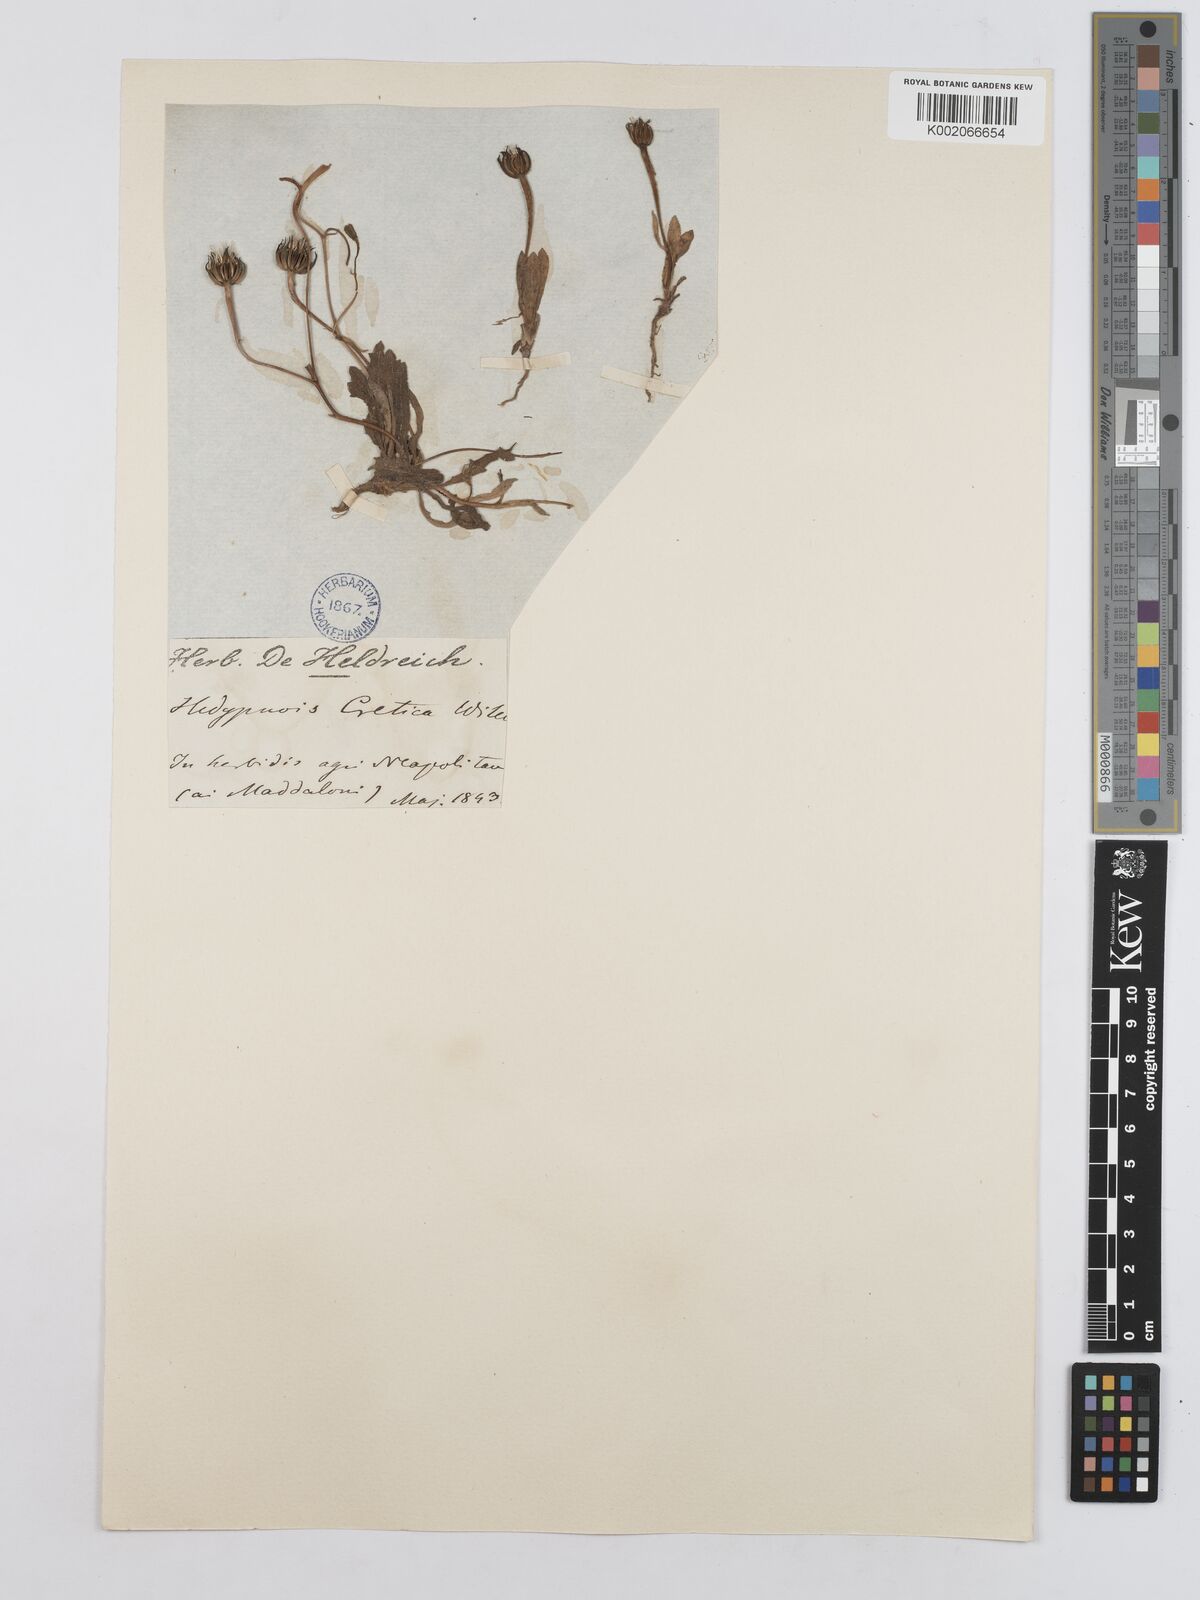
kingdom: Plantae
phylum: Tracheophyta
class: Magnoliopsida
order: Asterales
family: Asteraceae
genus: Hedypnois
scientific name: Hedypnois rhagadioloides
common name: Cretan weed
